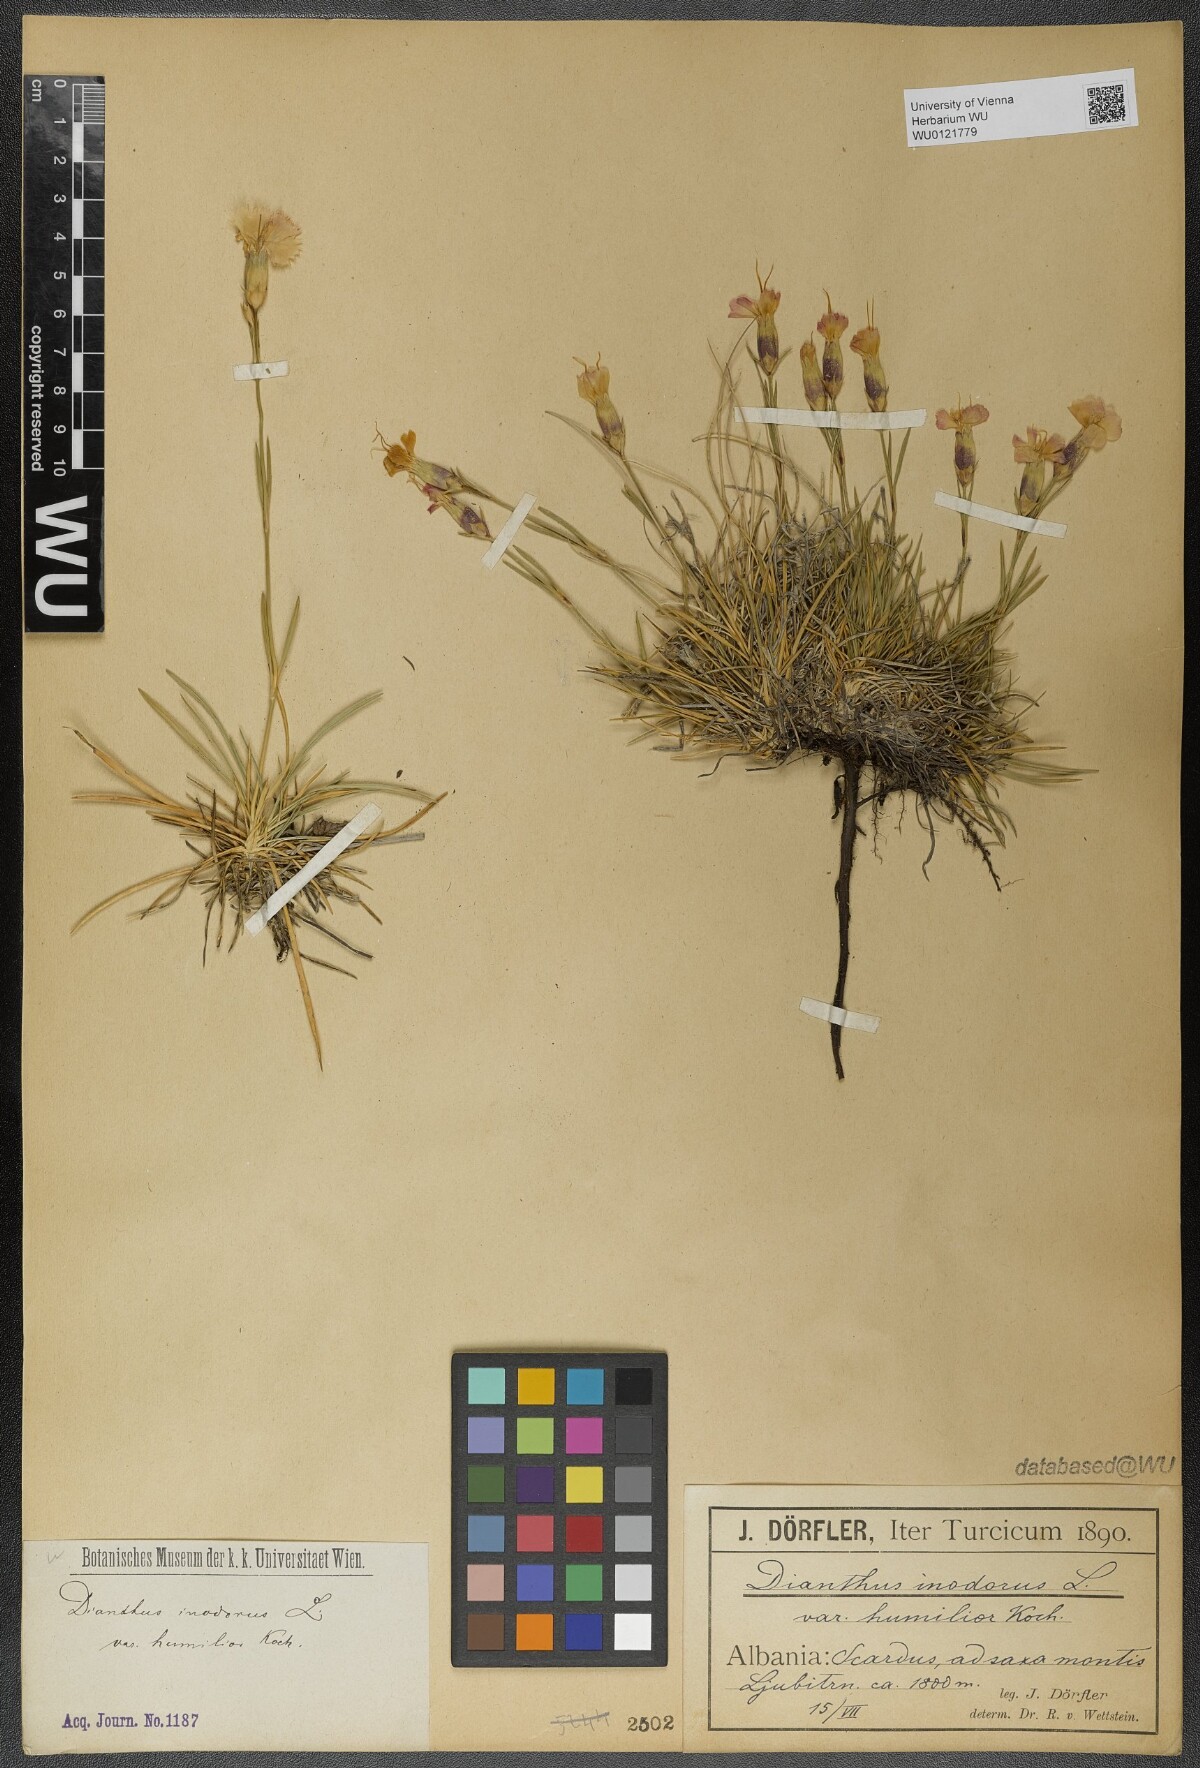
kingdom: Plantae
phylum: Tracheophyta
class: Magnoliopsida
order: Caryophyllales
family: Caryophyllaceae
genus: Dianthus
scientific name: Dianthus sylvestris
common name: Wood pink
